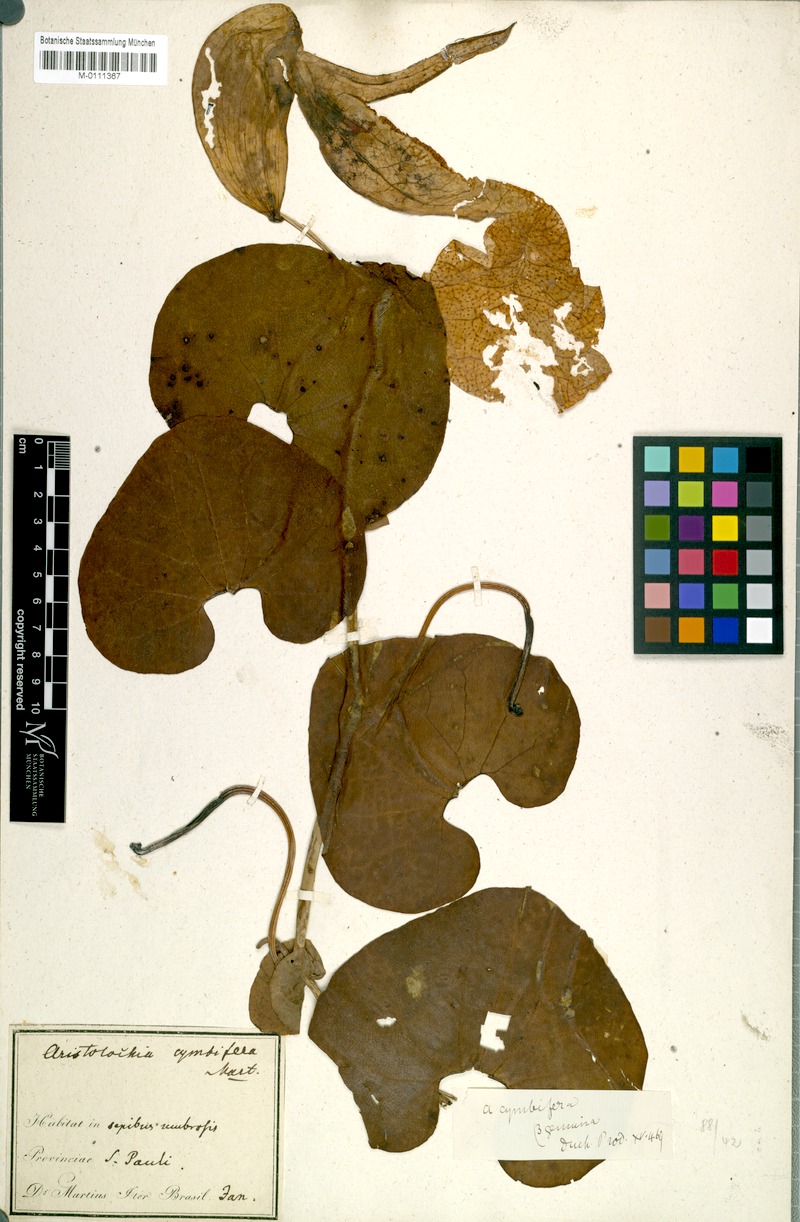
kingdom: Plantae
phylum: Tracheophyta
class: Magnoliopsida
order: Piperales
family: Aristolochiaceae
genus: Aristolochia
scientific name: Aristolochia cymbifera
